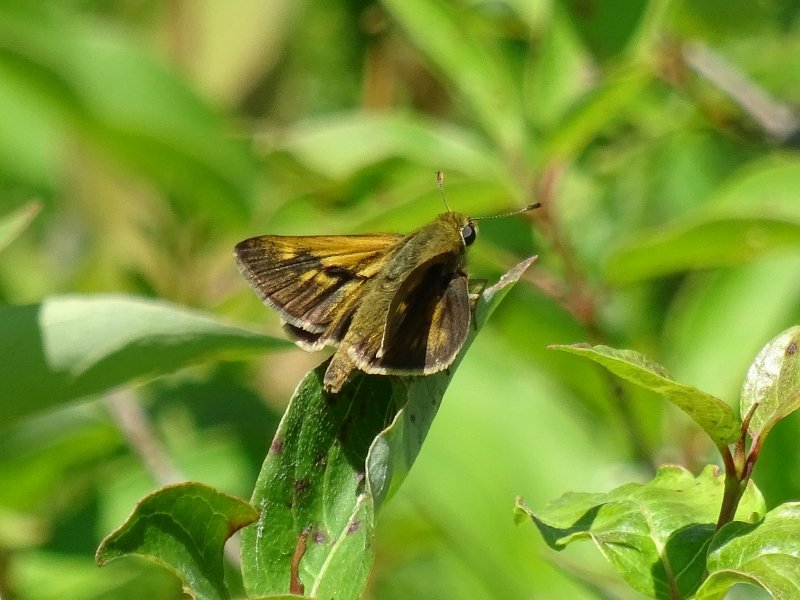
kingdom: Animalia
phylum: Arthropoda
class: Insecta
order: Lepidoptera
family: Hesperiidae
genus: Polites
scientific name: Polites
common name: Long Dash Skipper
